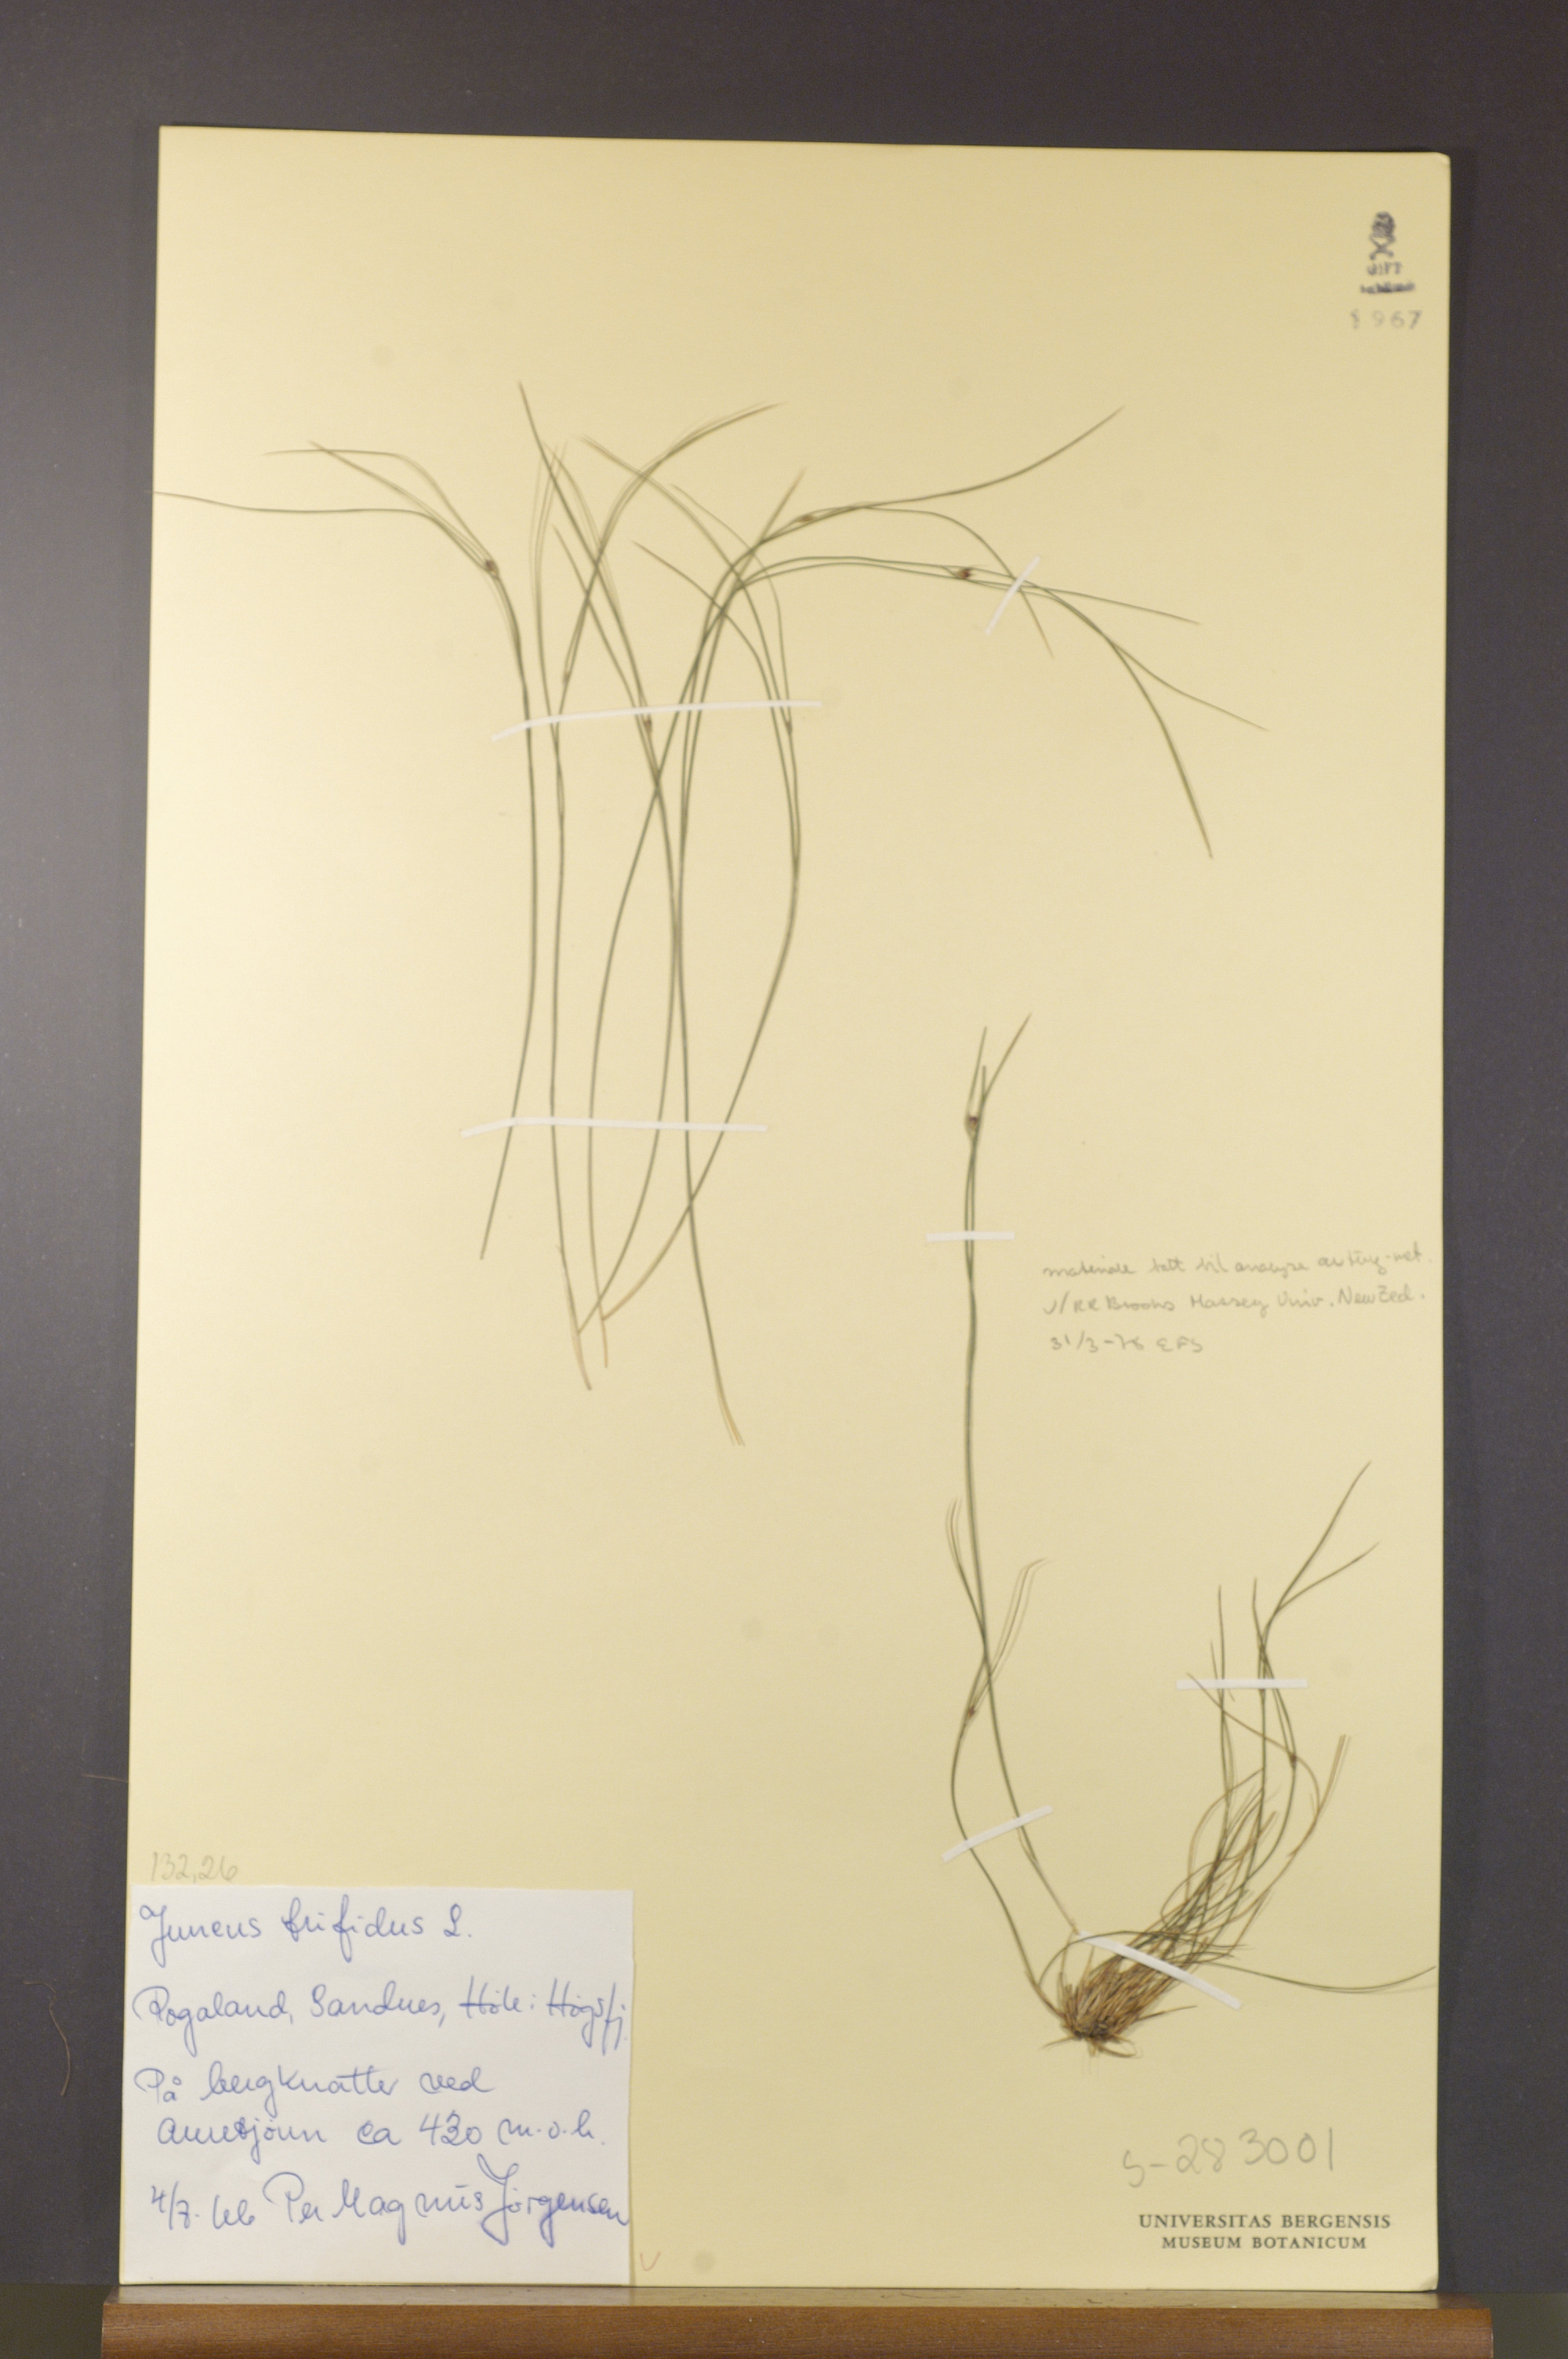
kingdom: Plantae
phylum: Tracheophyta
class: Liliopsida
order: Poales
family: Juncaceae
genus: Oreojuncus
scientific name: Oreojuncus trifidus
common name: Highland rush
